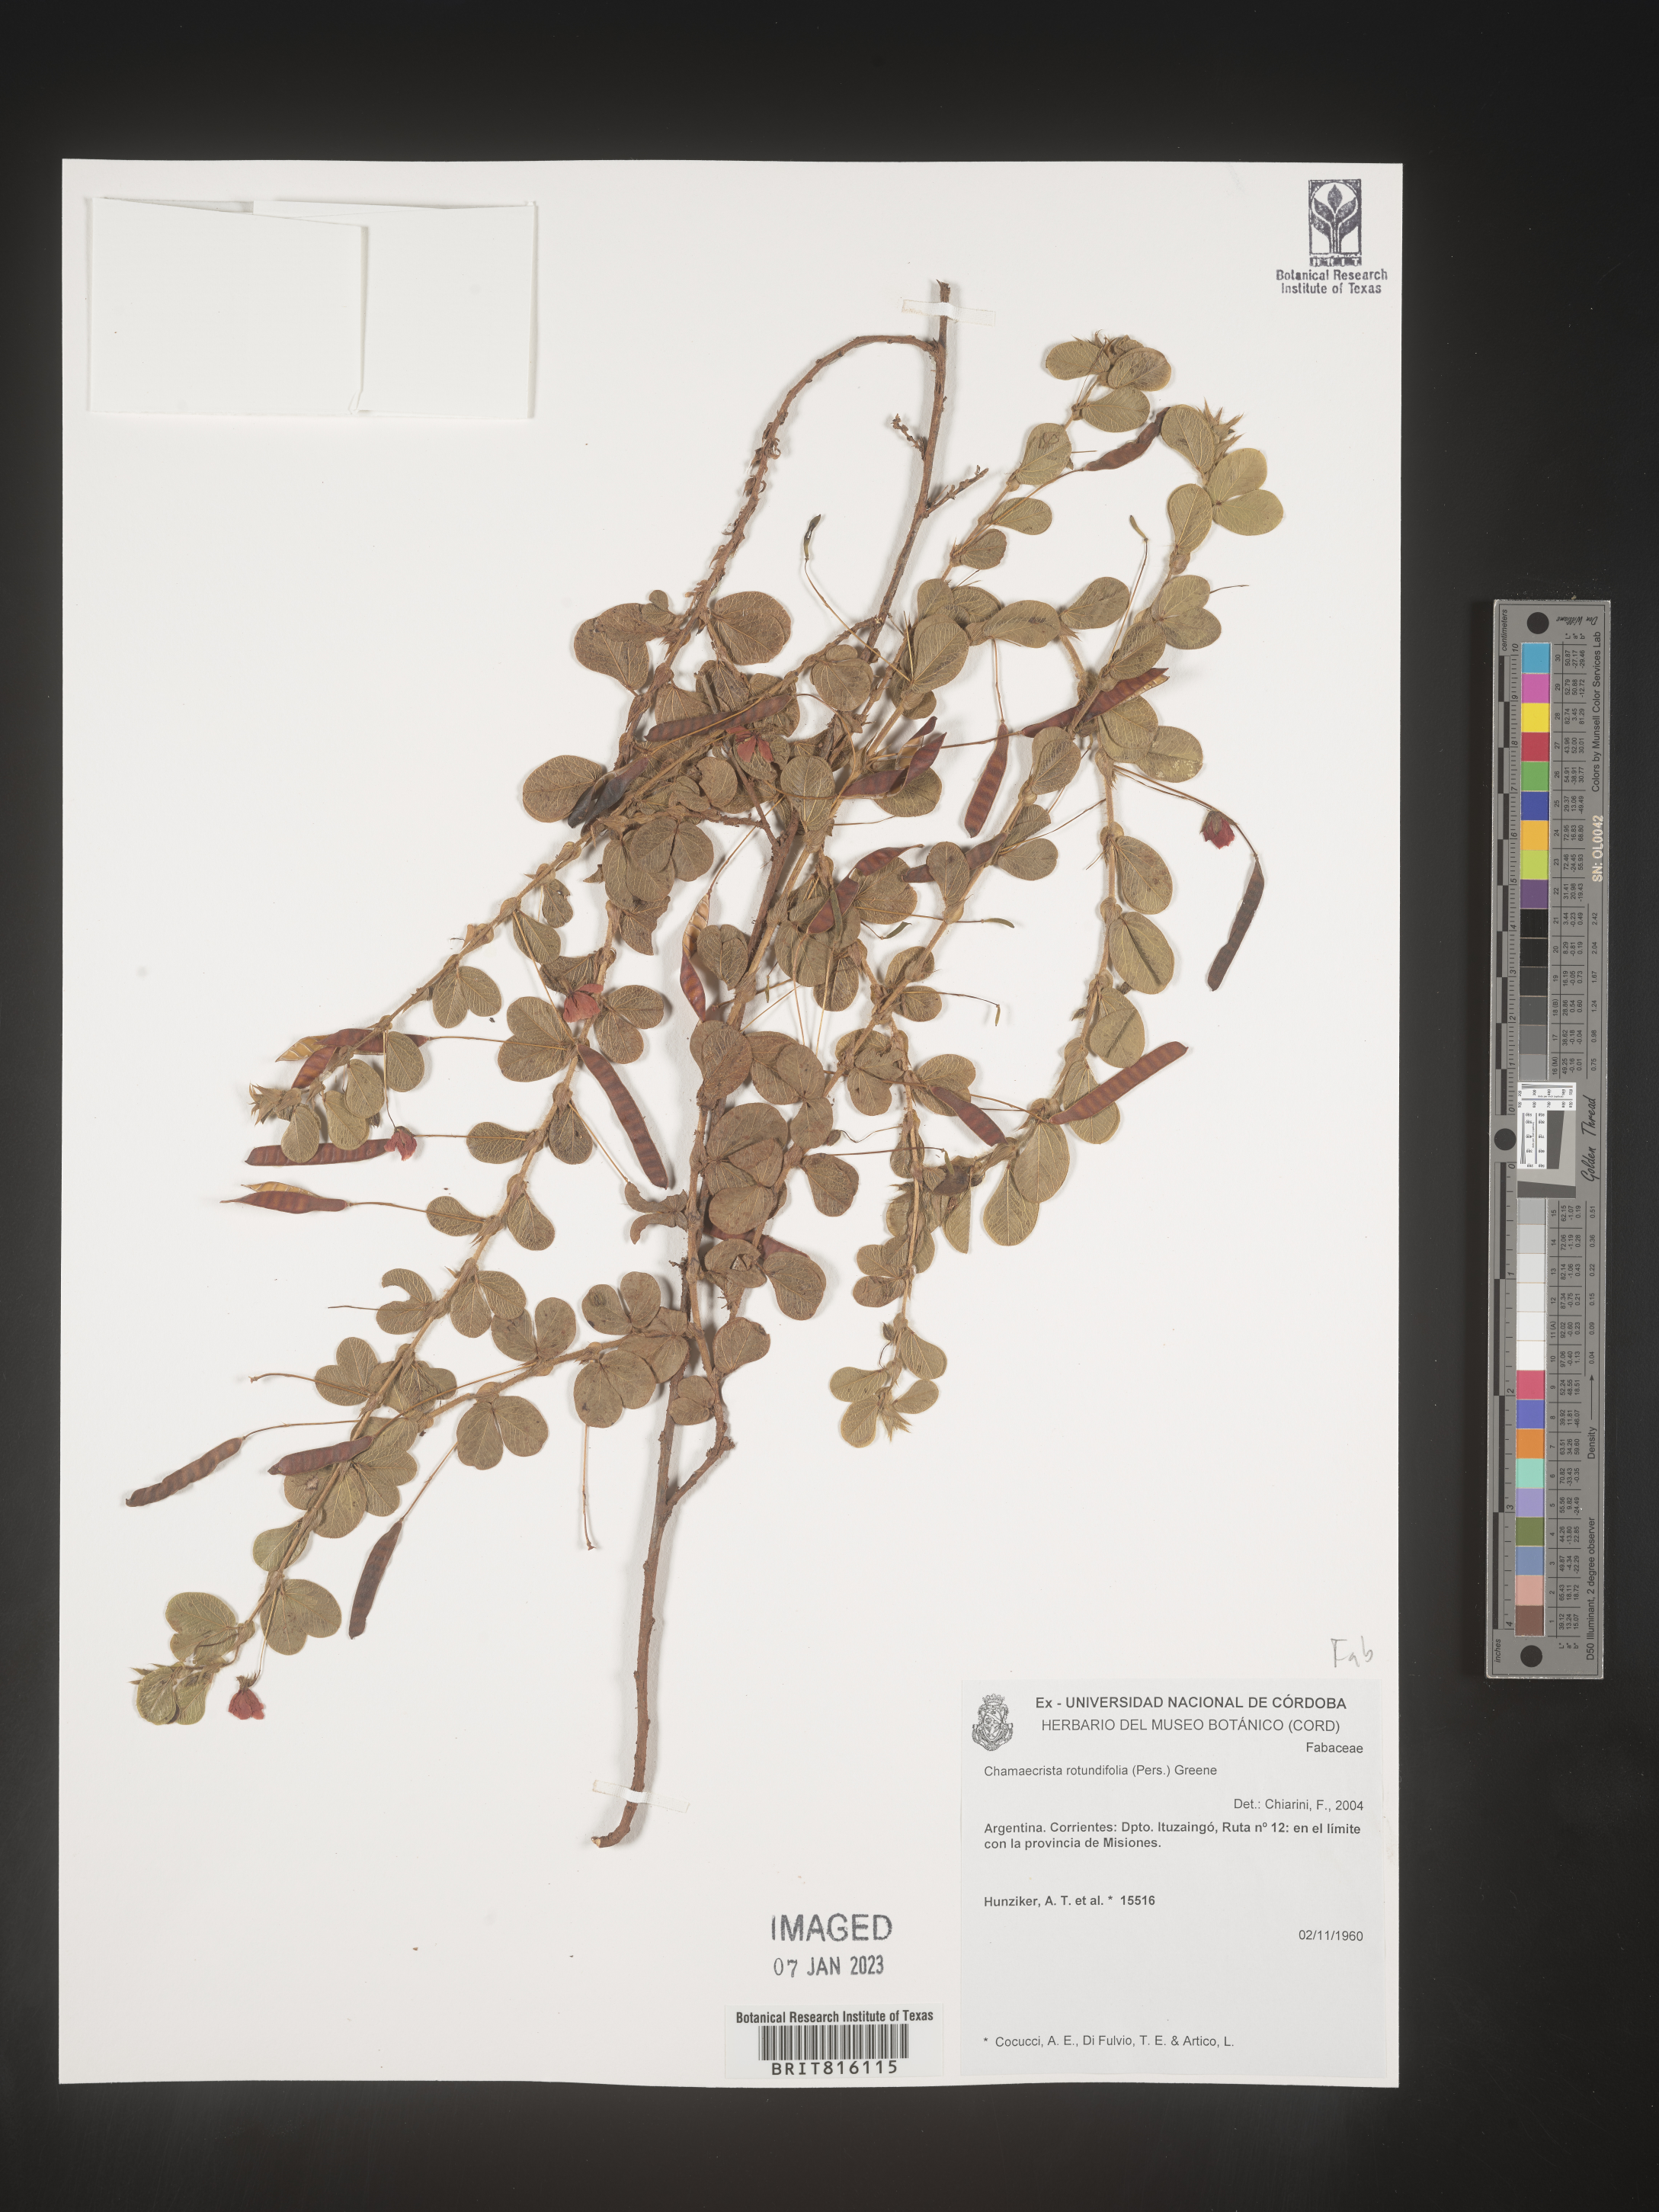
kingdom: Plantae
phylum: Tracheophyta
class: Magnoliopsida
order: Fabales
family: Fabaceae
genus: Chamaecrista
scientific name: Chamaecrista
